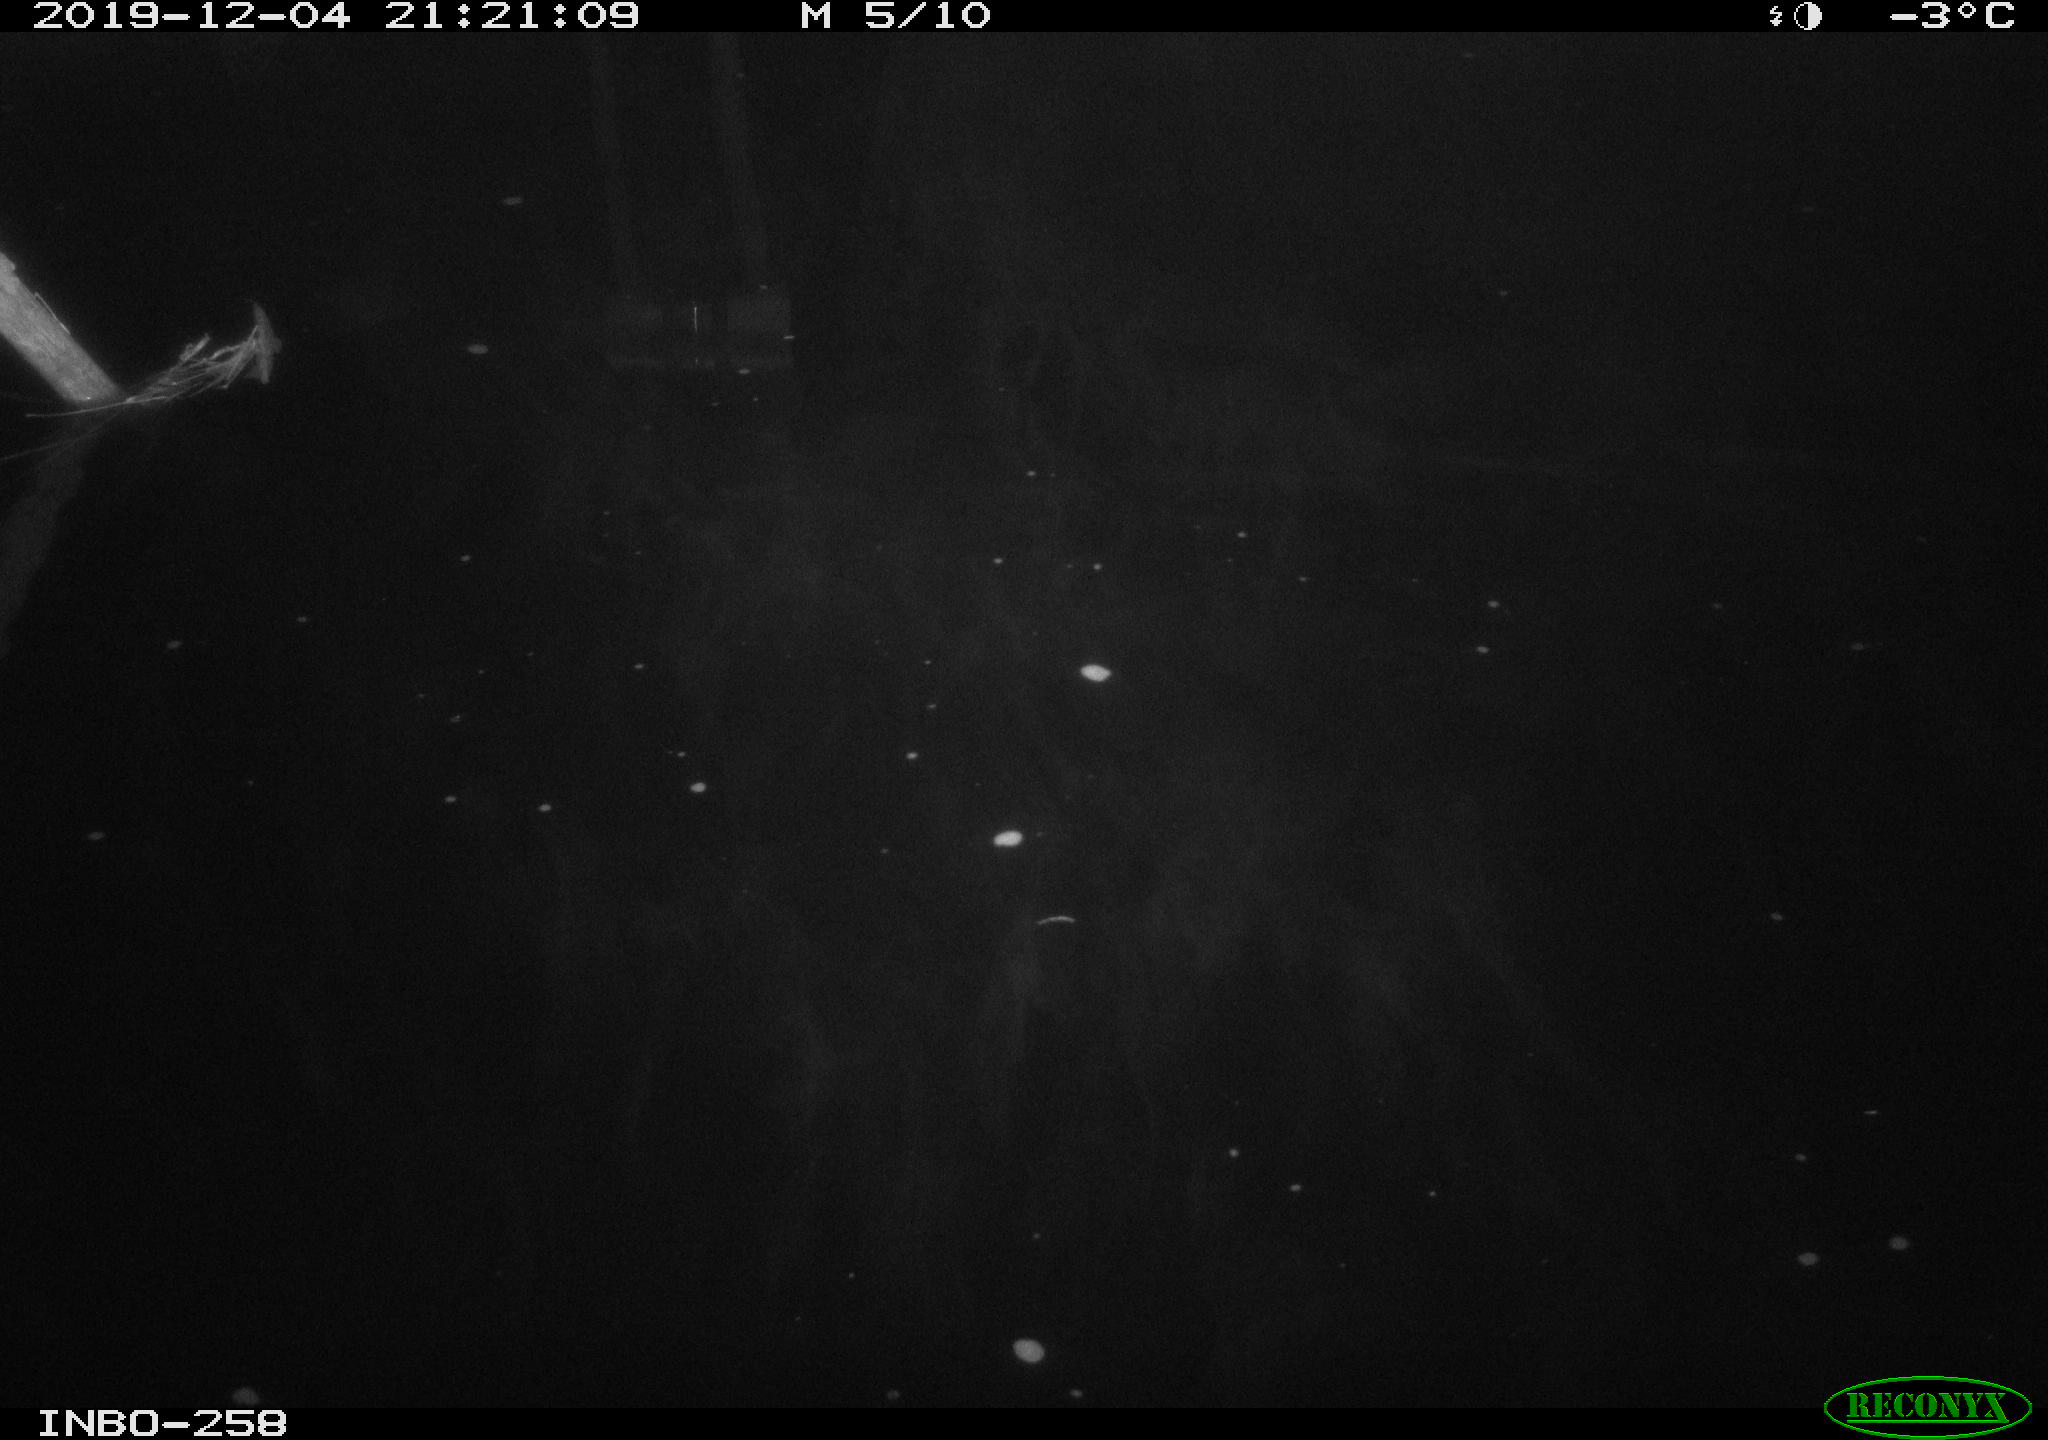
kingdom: Animalia
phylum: Chordata
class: Aves
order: Anseriformes
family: Anatidae
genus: Anas
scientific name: Anas platyrhynchos
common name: Mallard
